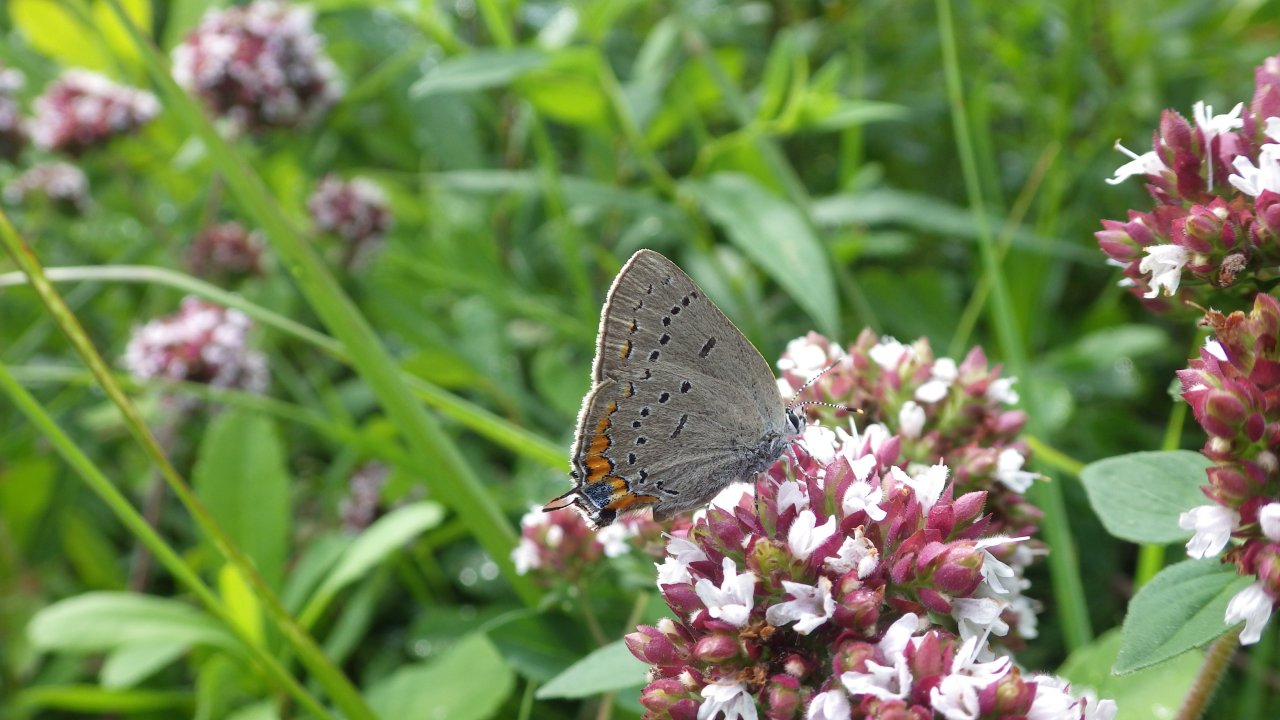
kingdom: Animalia
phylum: Arthropoda
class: Insecta
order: Lepidoptera
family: Lycaenidae
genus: Strymon
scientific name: Strymon acadica
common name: Acadian Hairstreak
